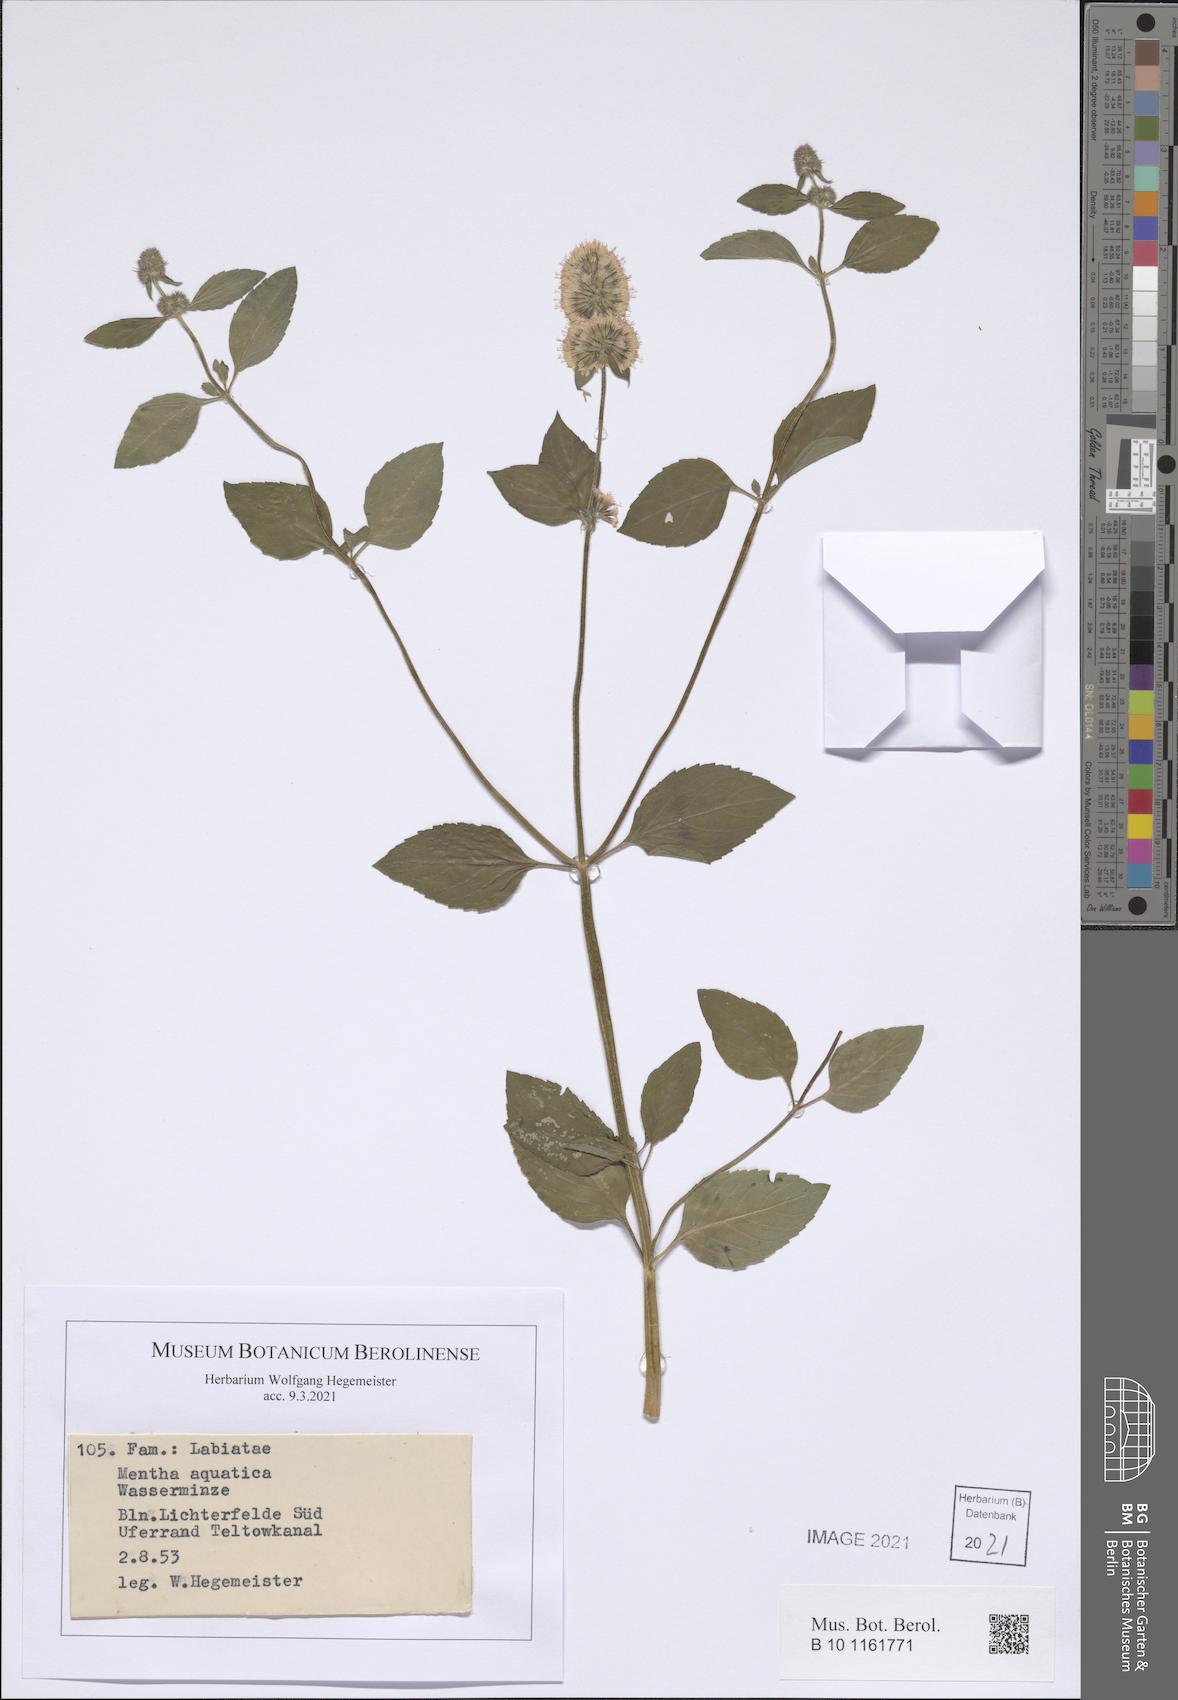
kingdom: Plantae
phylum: Tracheophyta
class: Magnoliopsida
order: Lamiales
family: Lamiaceae
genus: Mentha
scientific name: Mentha aquatica
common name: Water mint
